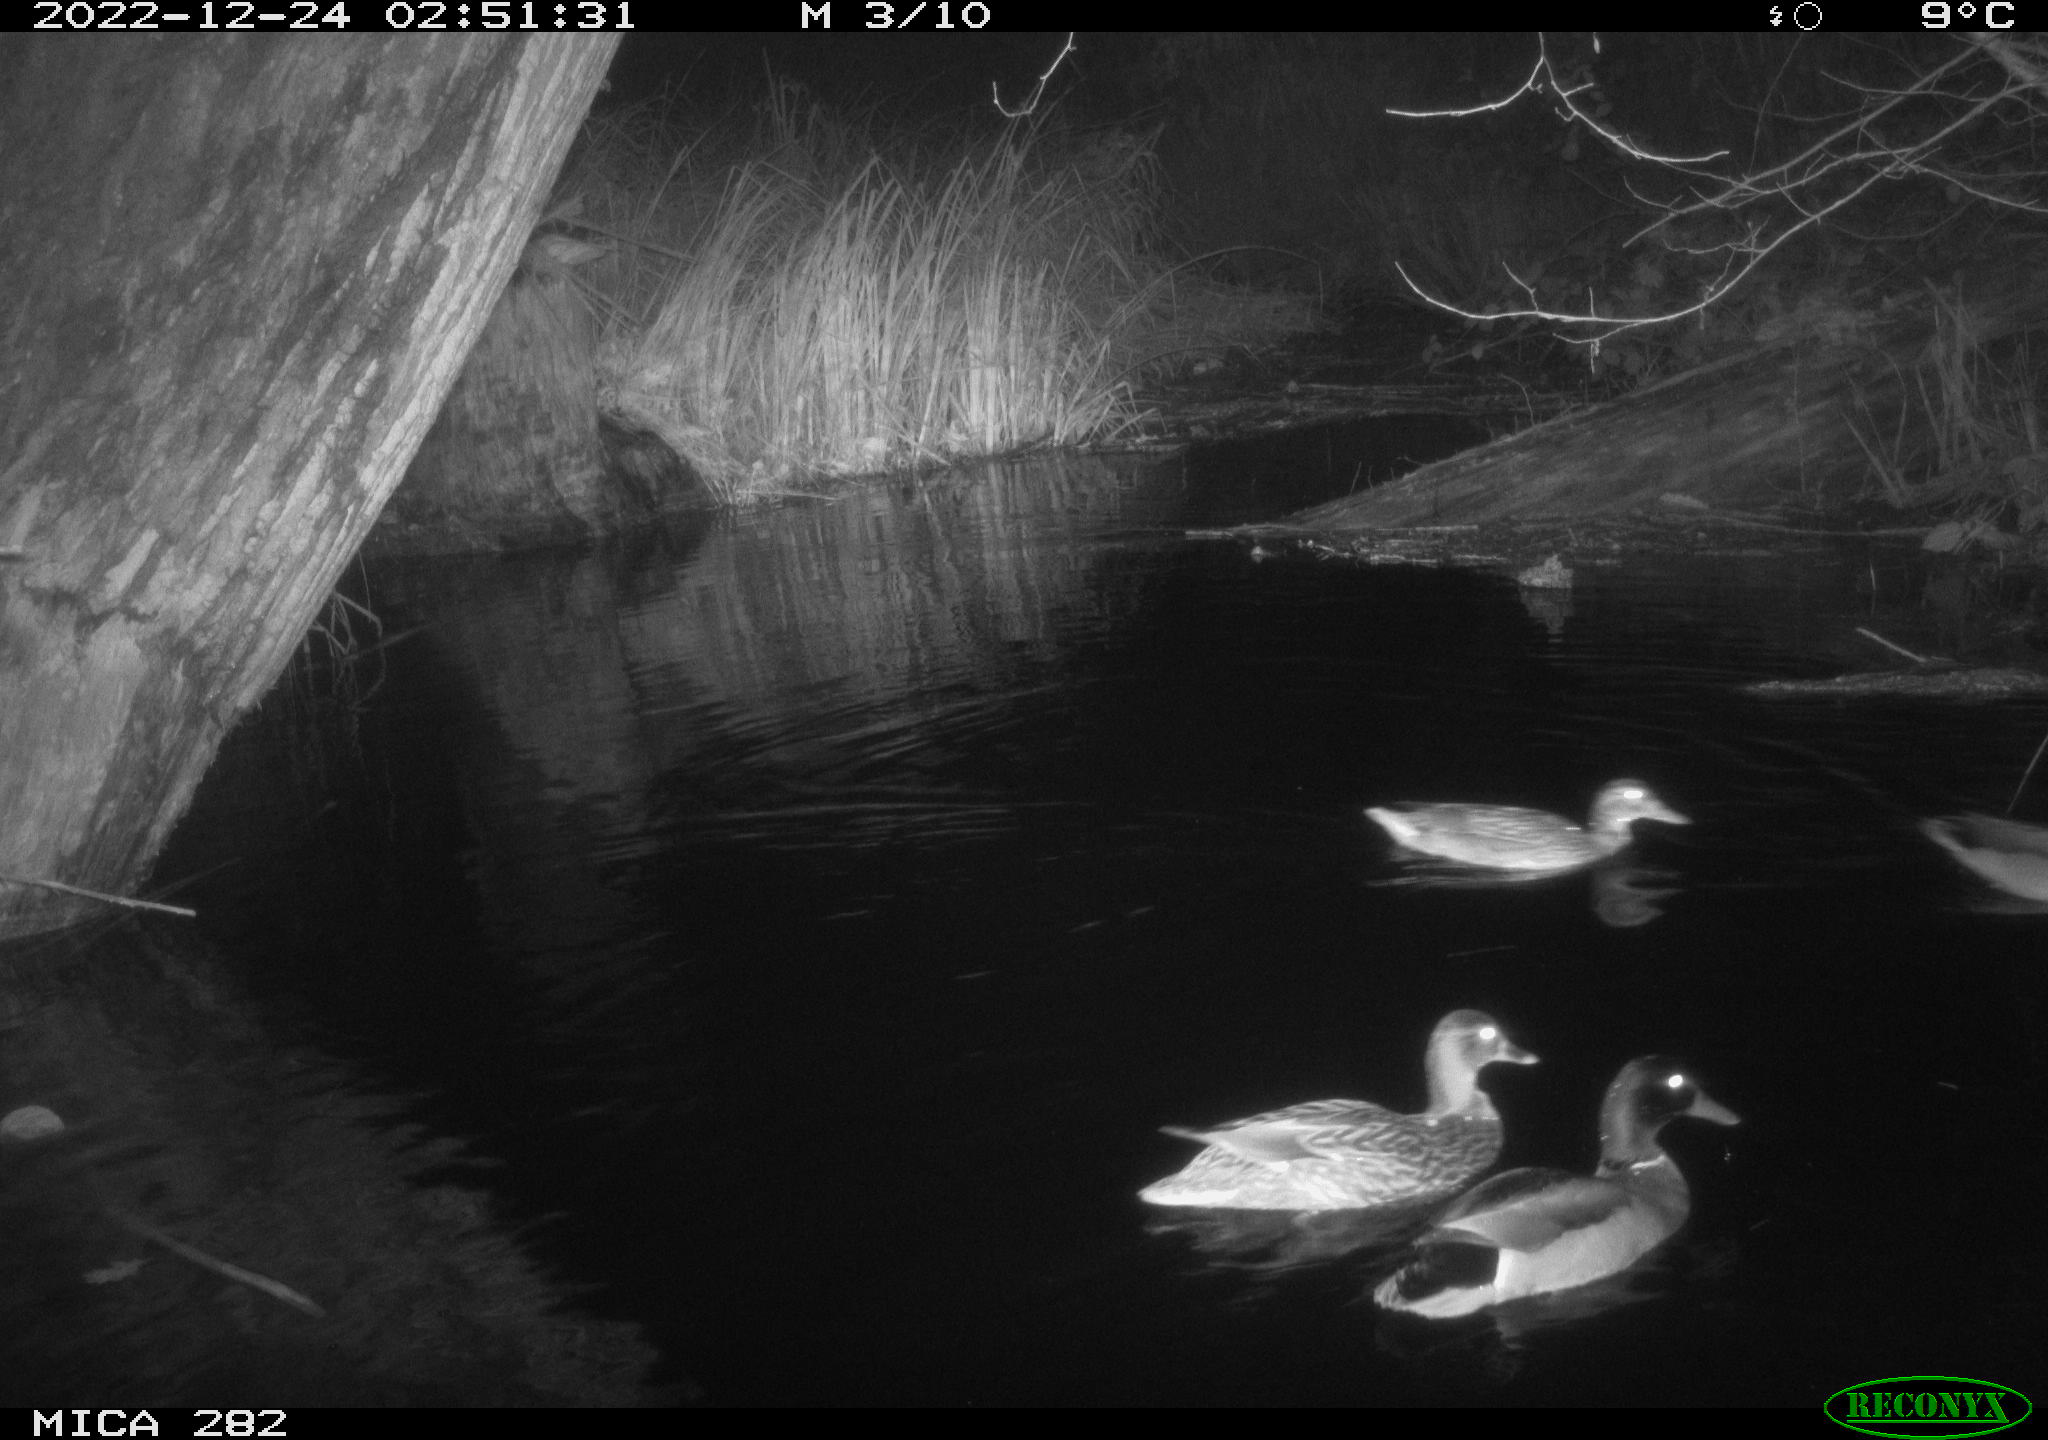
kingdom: Animalia
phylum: Chordata
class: Aves
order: Anseriformes
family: Anatidae
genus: Anas
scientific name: Anas
